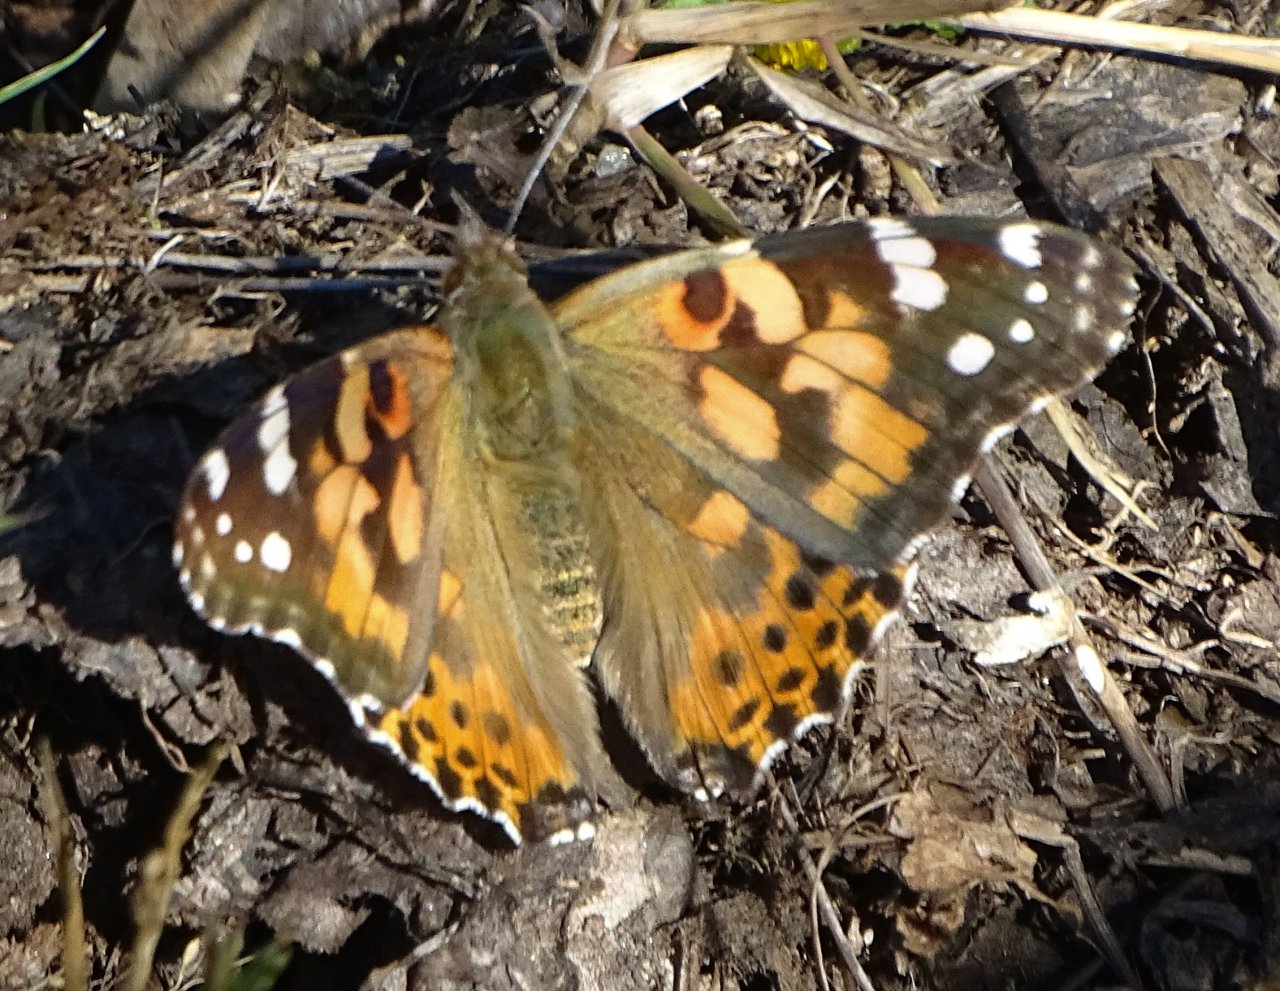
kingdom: Animalia
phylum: Arthropoda
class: Insecta
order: Lepidoptera
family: Nymphalidae
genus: Vanessa
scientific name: Vanessa cardui
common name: Painted Lady
